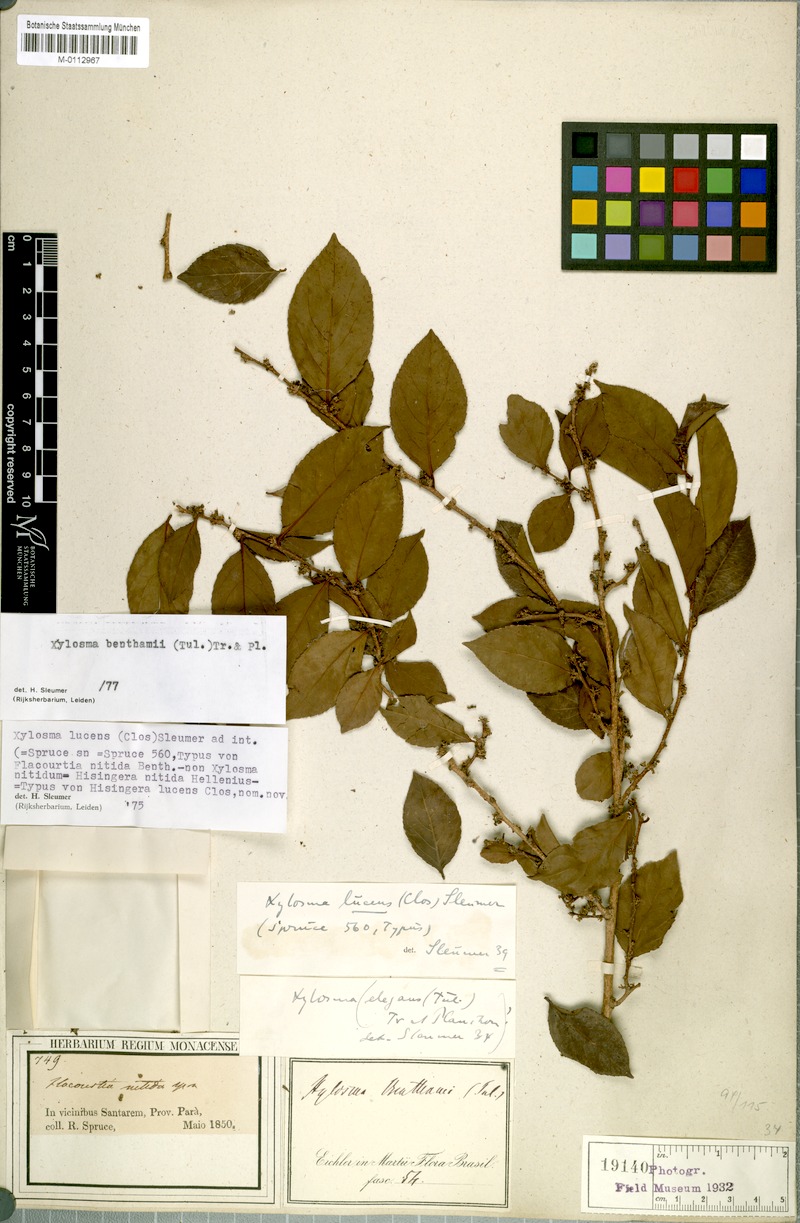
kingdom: Plantae
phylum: Tracheophyta
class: Magnoliopsida
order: Malpighiales
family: Salicaceae
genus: Xylosma
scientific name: Xylosma benthamii
